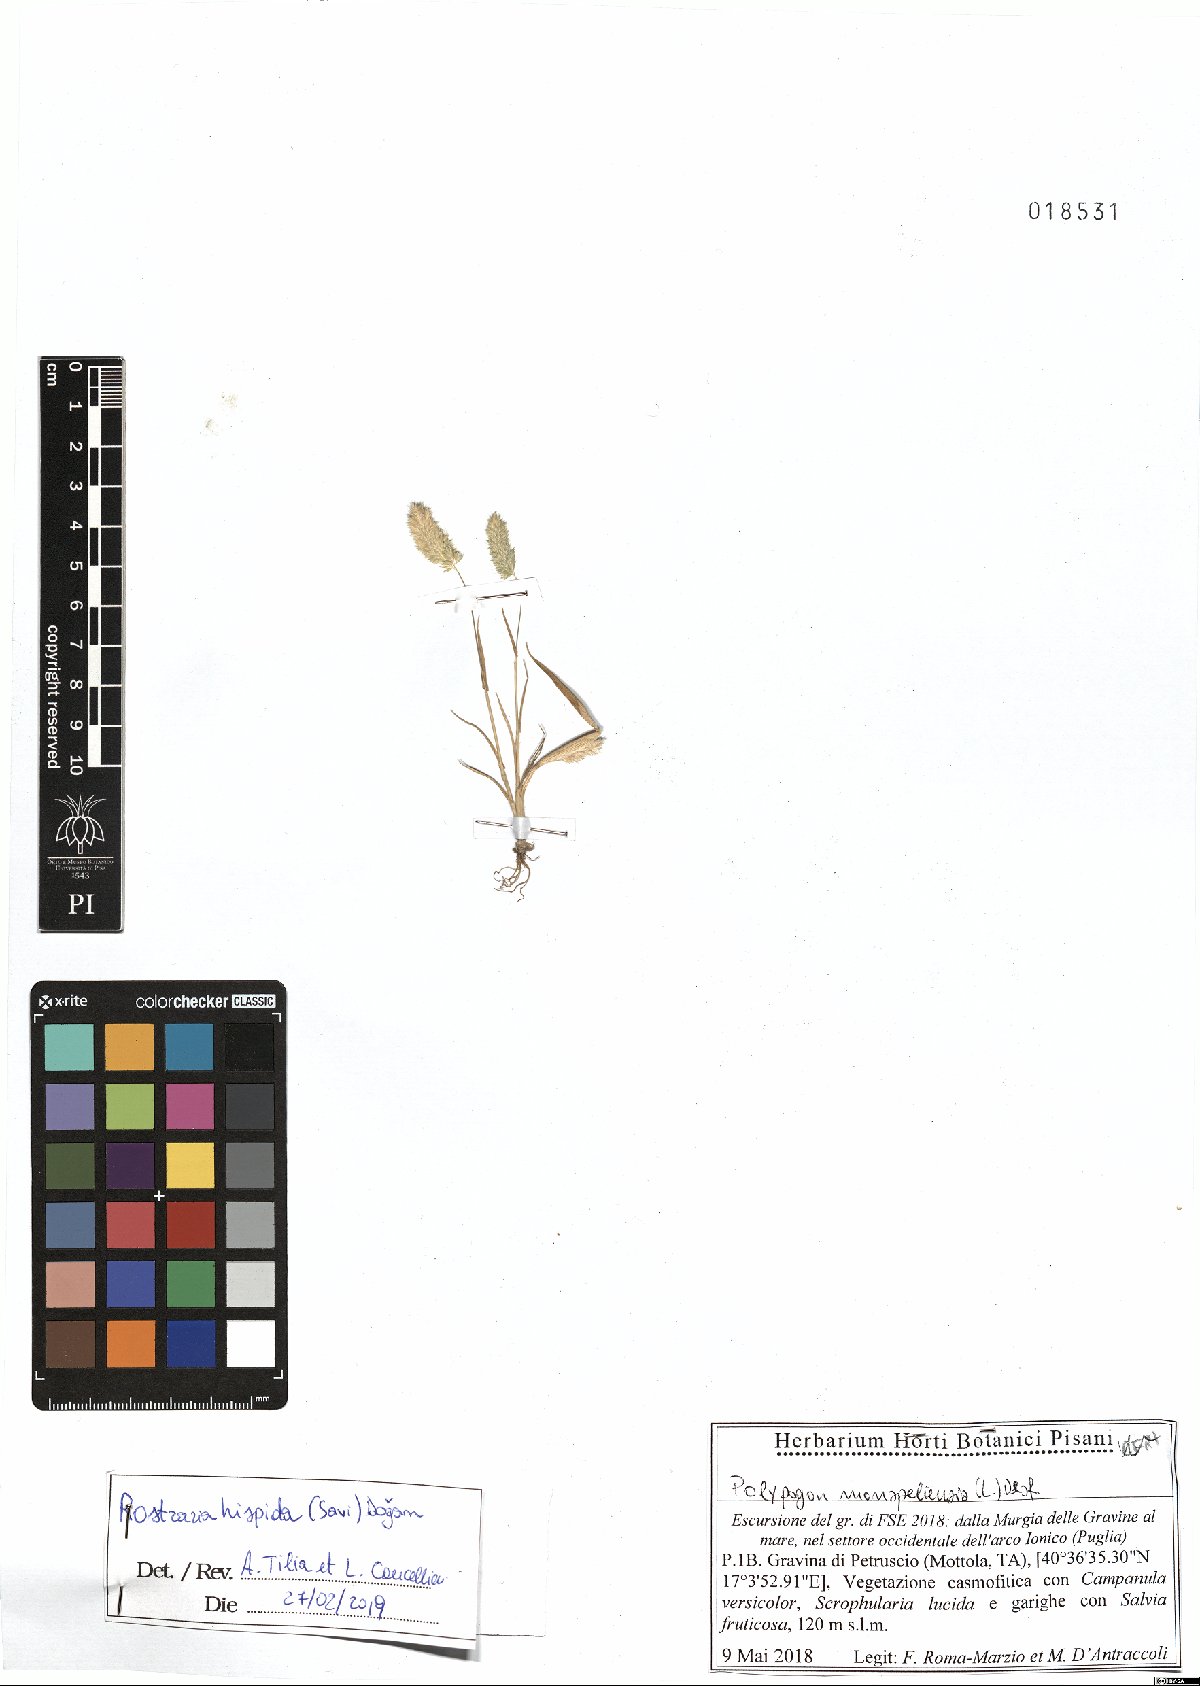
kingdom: Plantae
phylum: Tracheophyta
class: Liliopsida
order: Poales
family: Poaceae
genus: Rostraria
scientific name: Rostraria hispida
